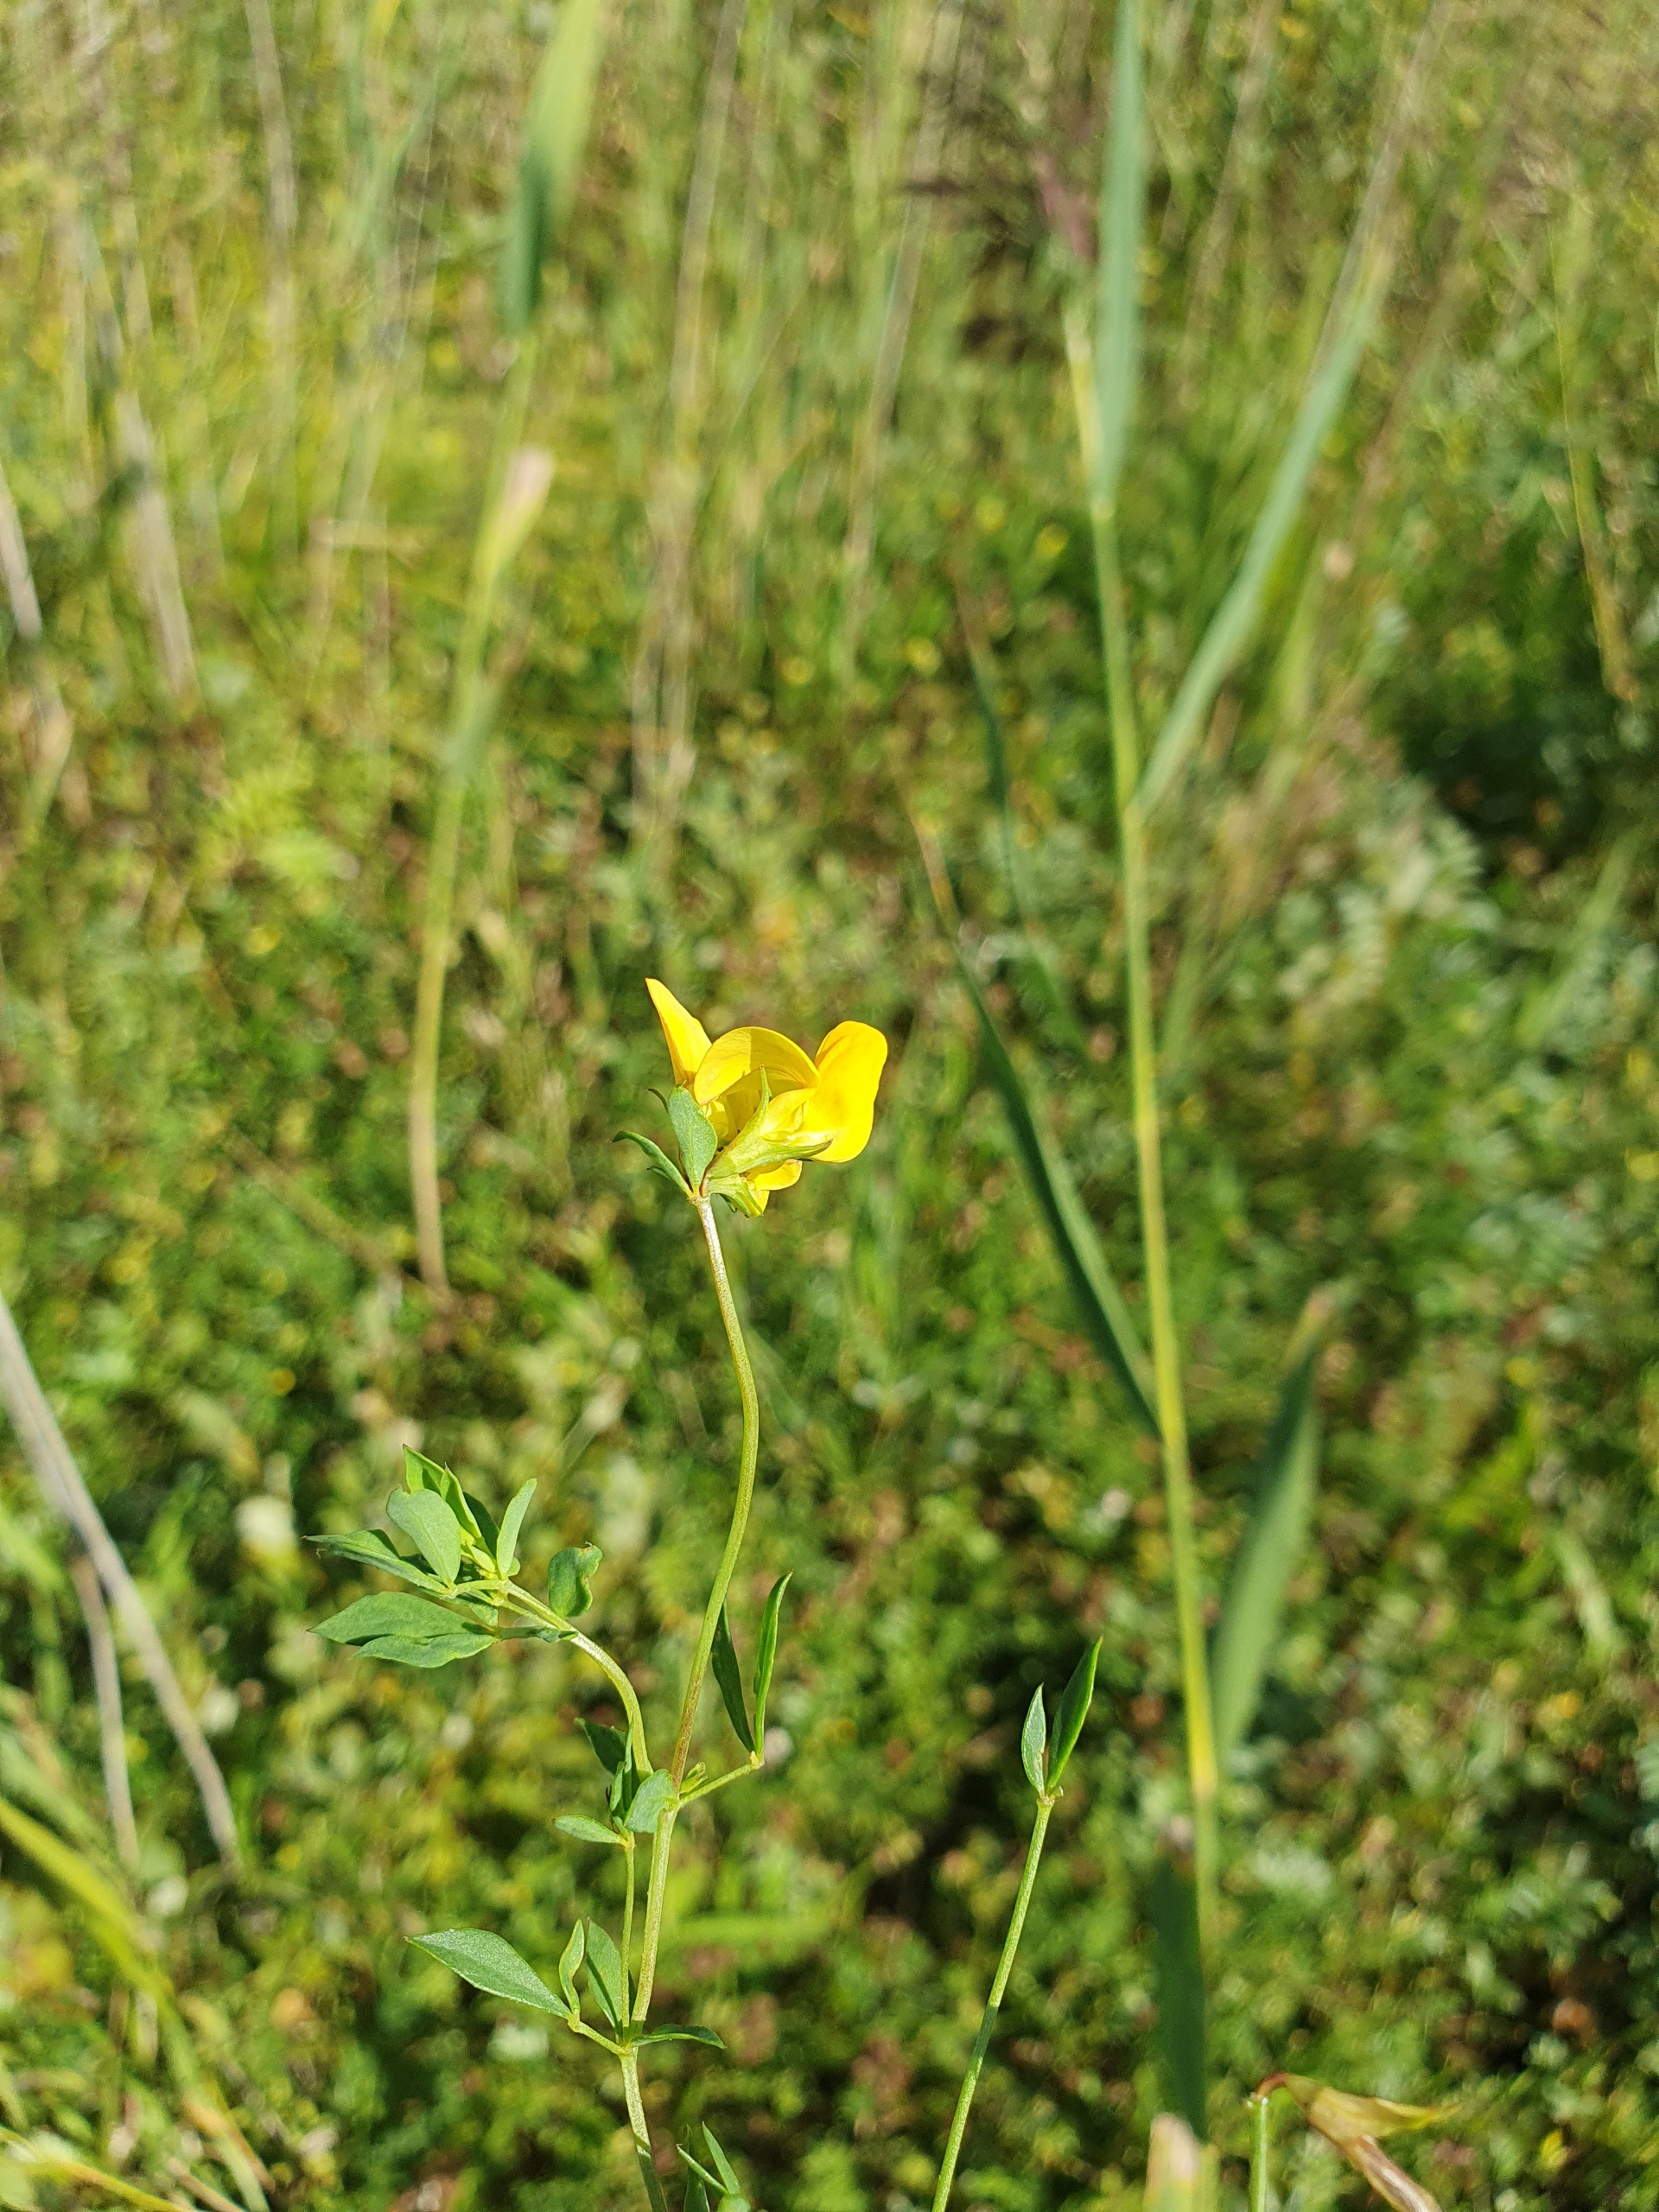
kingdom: Plantae
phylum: Tracheophyta
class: Magnoliopsida
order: Fabales
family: Fabaceae
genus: Lotus
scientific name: Lotus corniculatus
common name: Almindelig kællingetand
